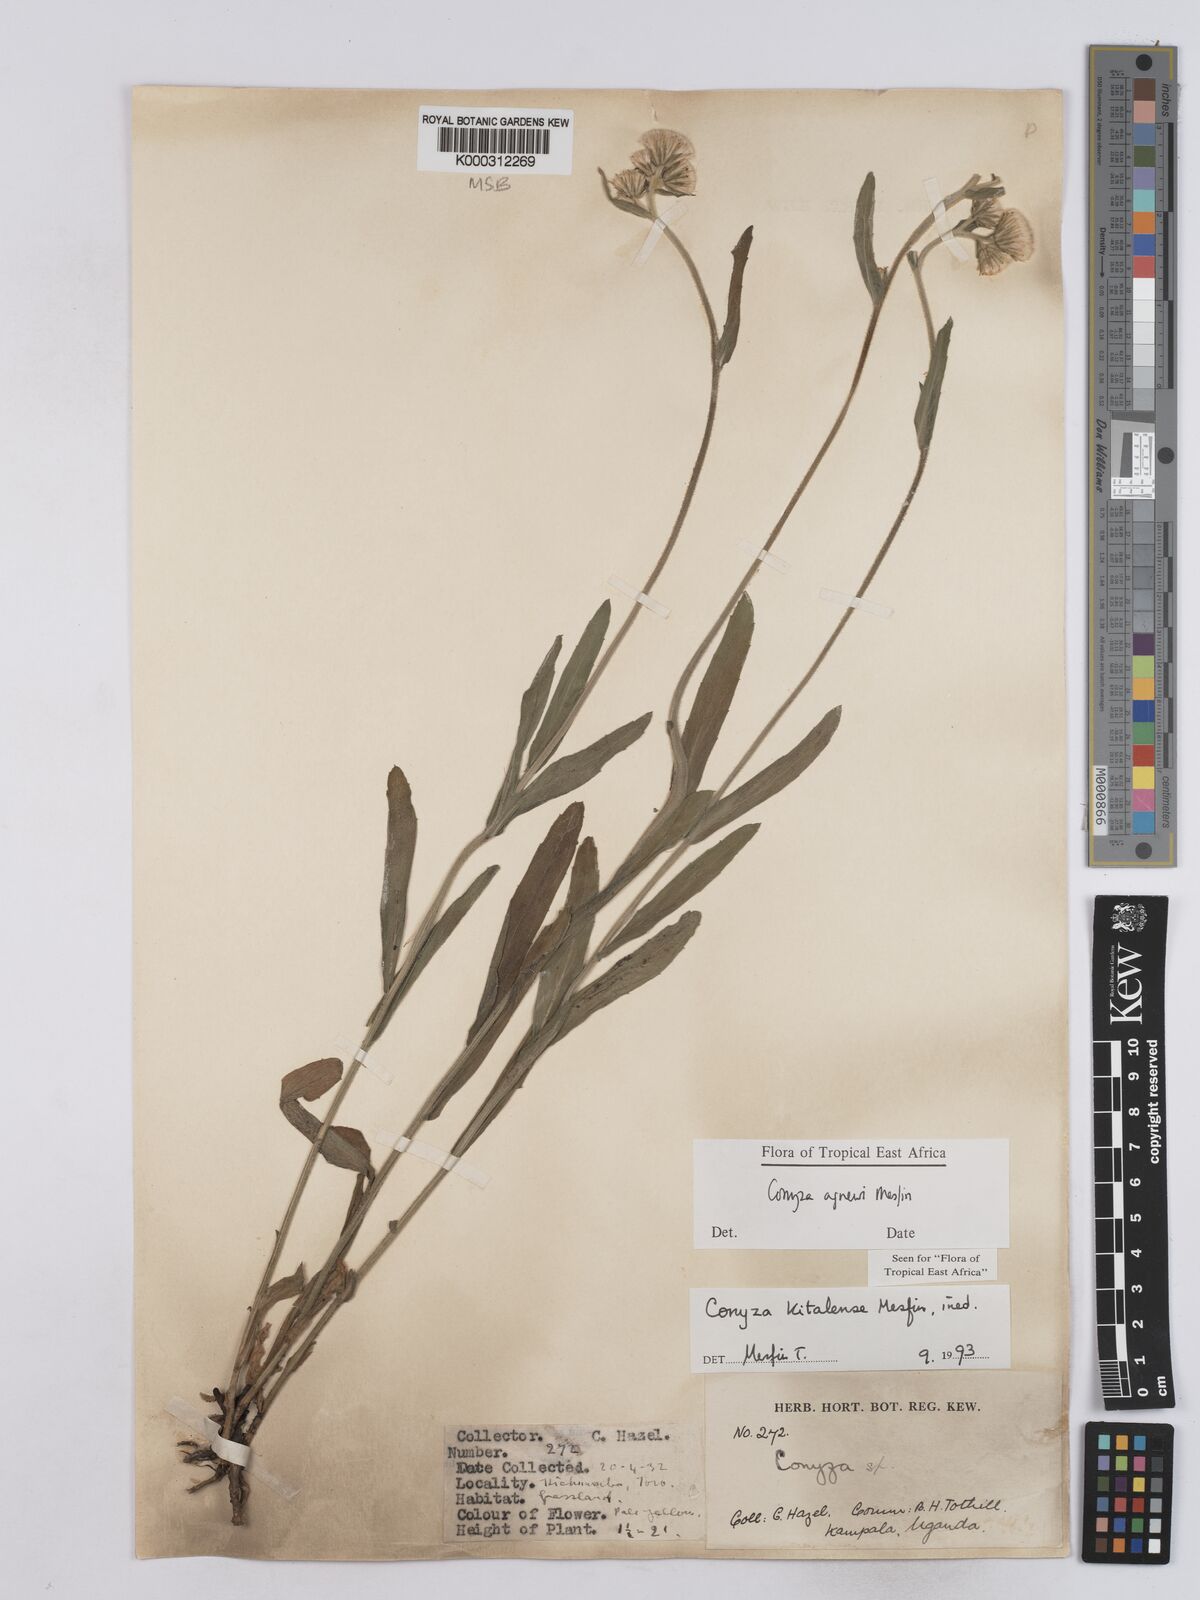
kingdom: Plantae
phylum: Tracheophyta
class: Magnoliopsida
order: Asterales
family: Asteraceae
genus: Conyza
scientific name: Conyza agnewii
